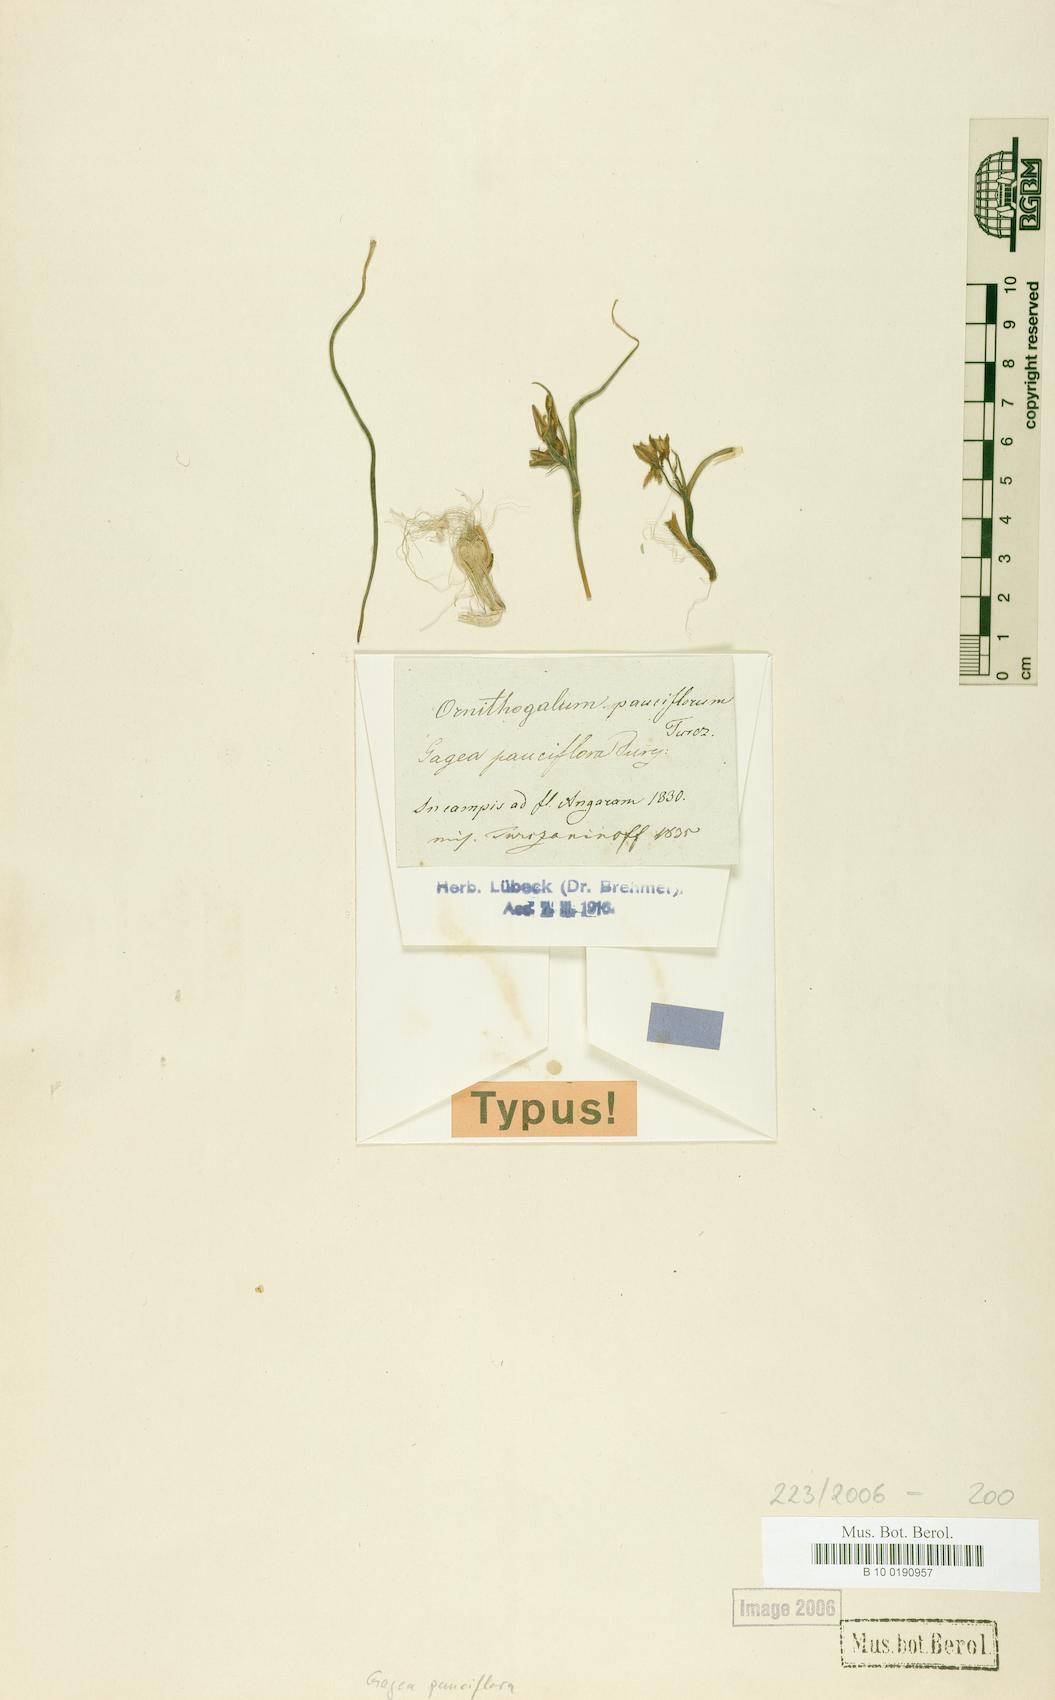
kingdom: Plantae
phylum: Tracheophyta
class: Liliopsida
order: Liliales
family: Liliaceae
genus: Gagea
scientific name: Gagea pauciflora
